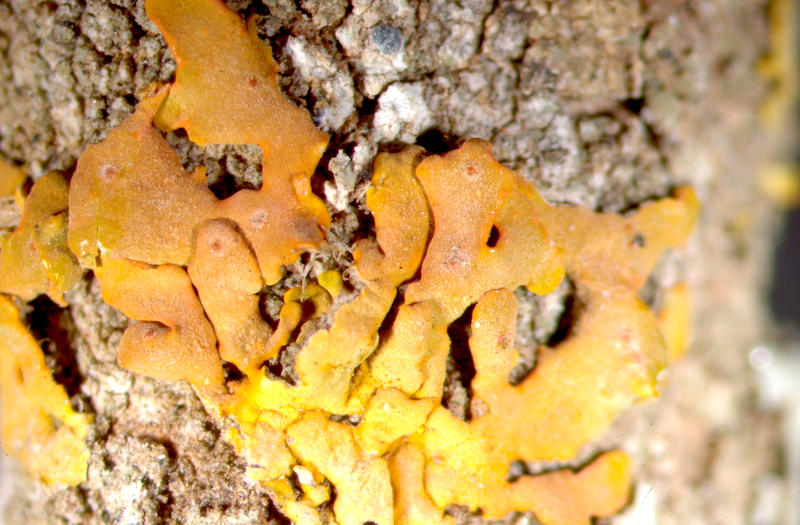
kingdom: Fungi
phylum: Ascomycota
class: Lecanoromycetes
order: Teloschistales
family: Teloschistaceae
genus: Dufourea
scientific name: Dufourea dissectula
